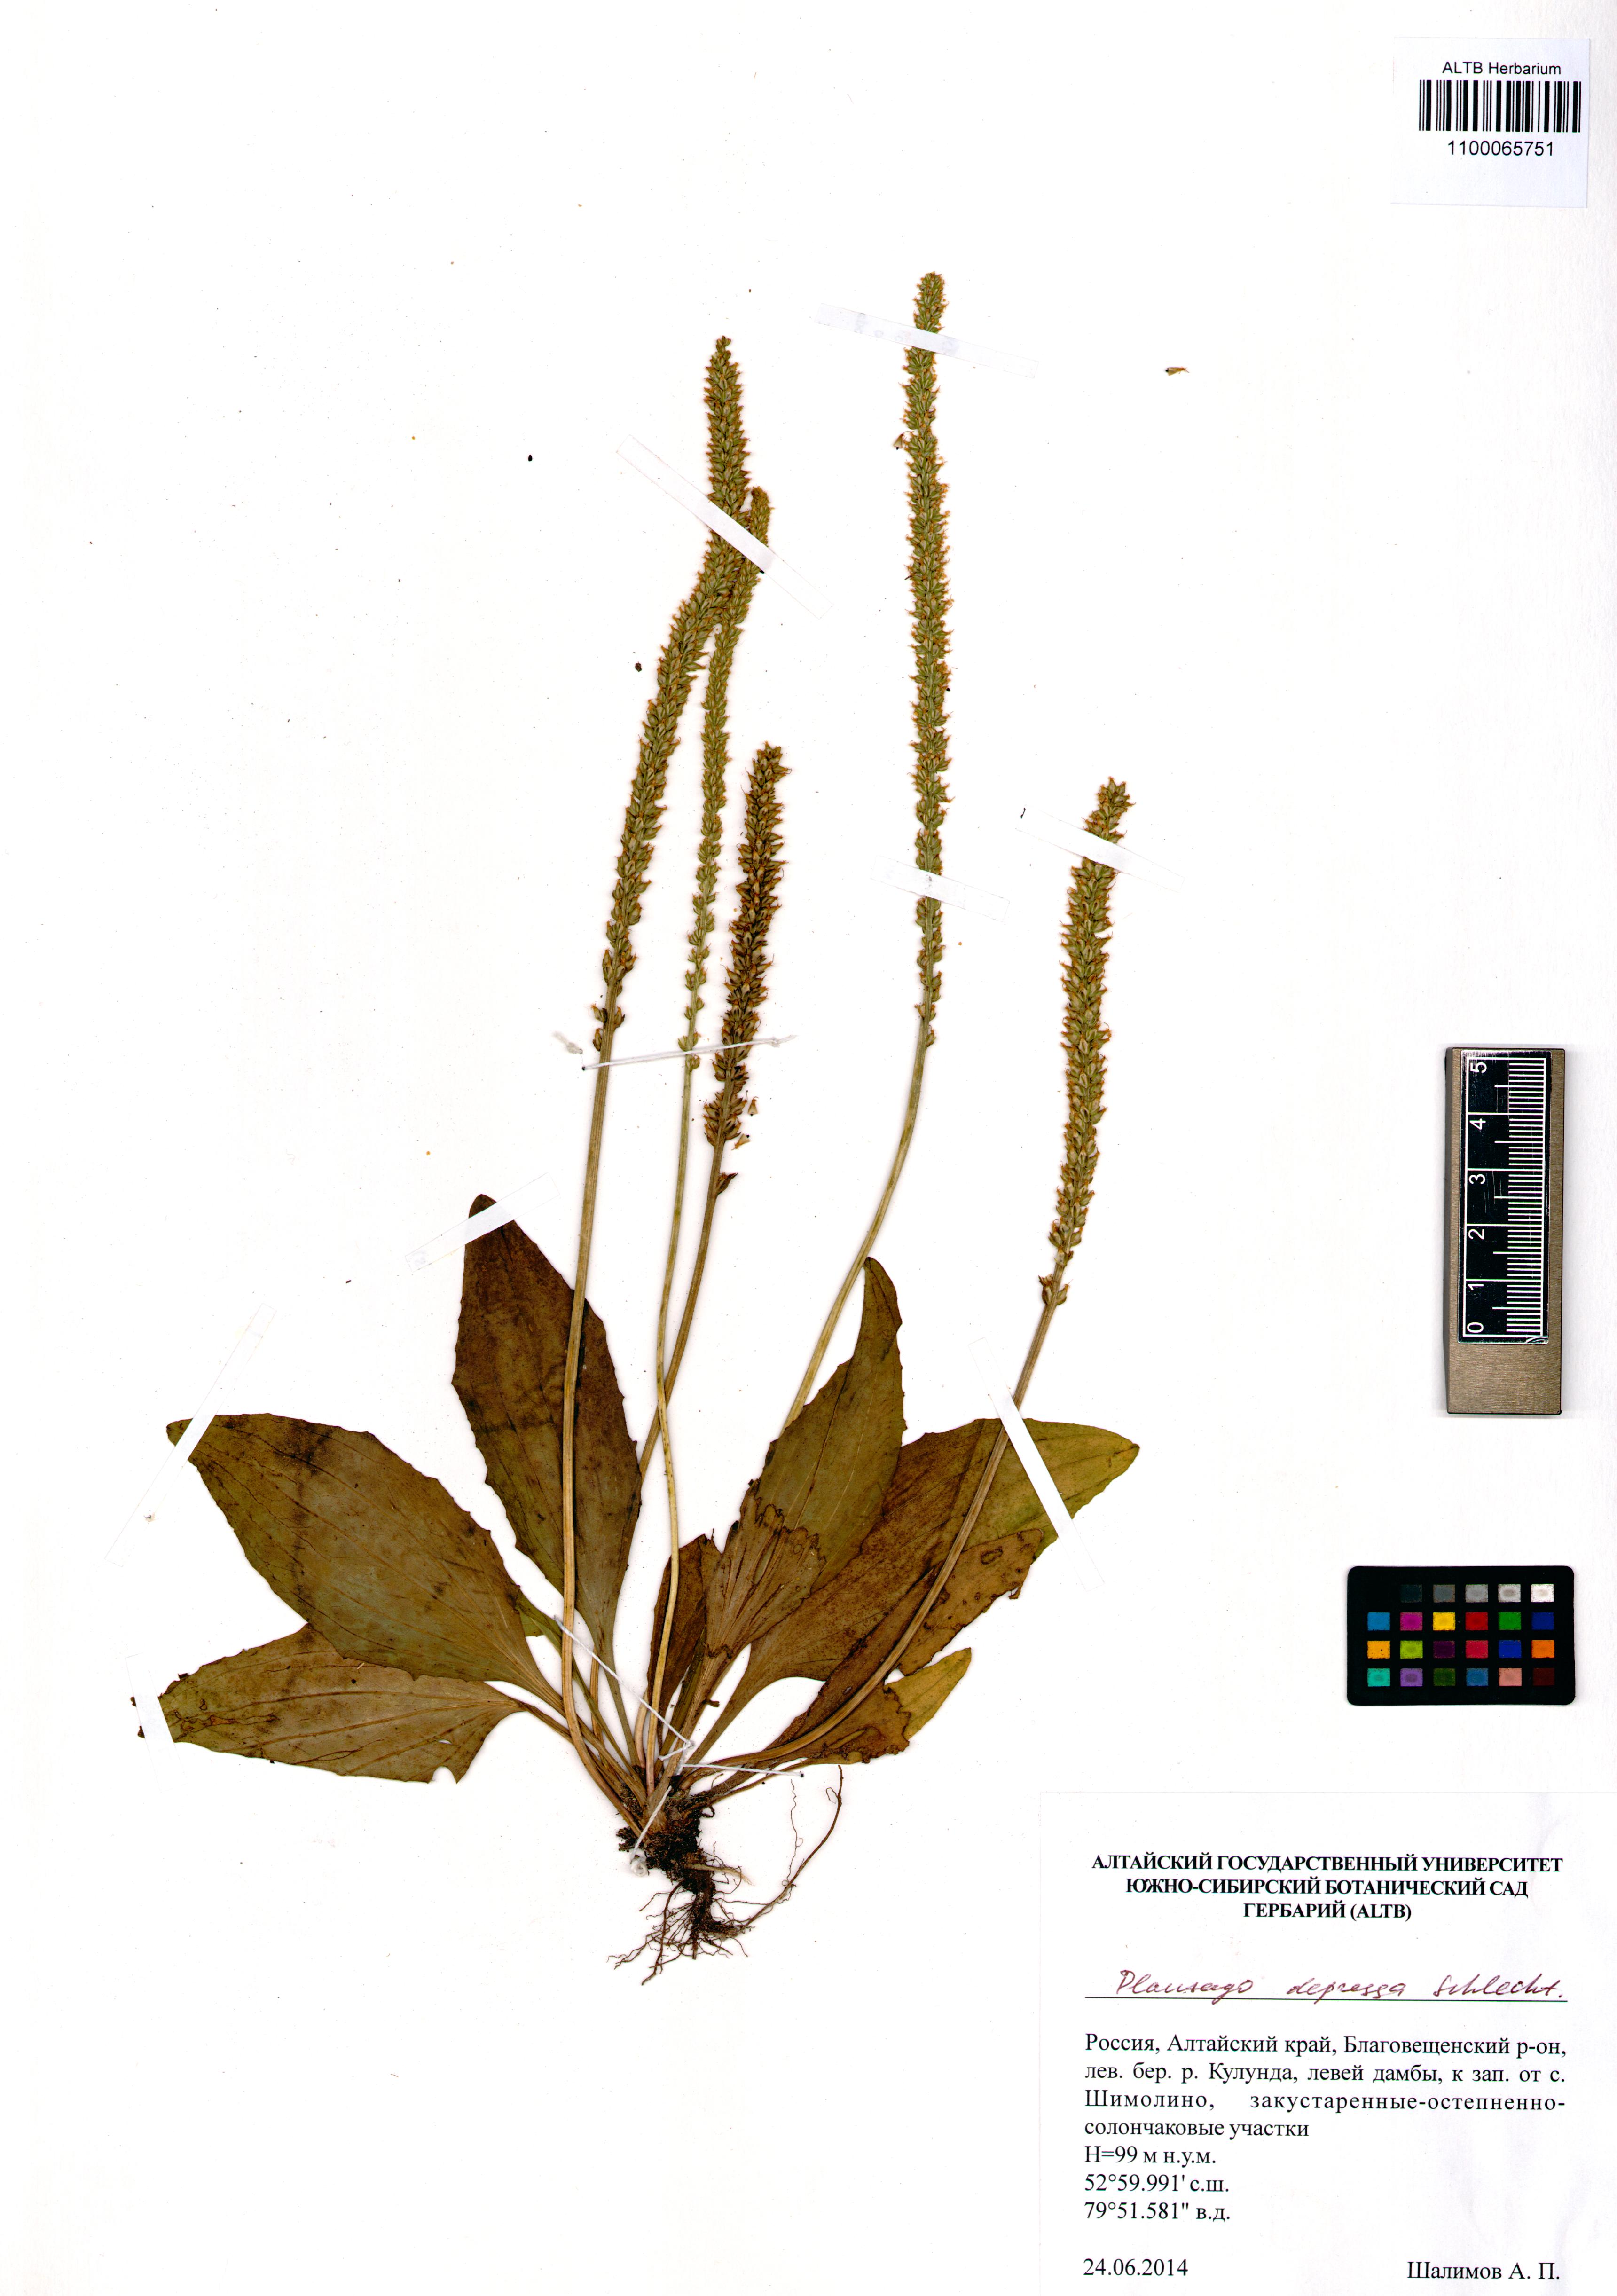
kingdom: Plantae
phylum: Tracheophyta
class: Magnoliopsida
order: Lamiales
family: Plantaginaceae
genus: Plantago
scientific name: Plantago depressa
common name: Depressed plantain
